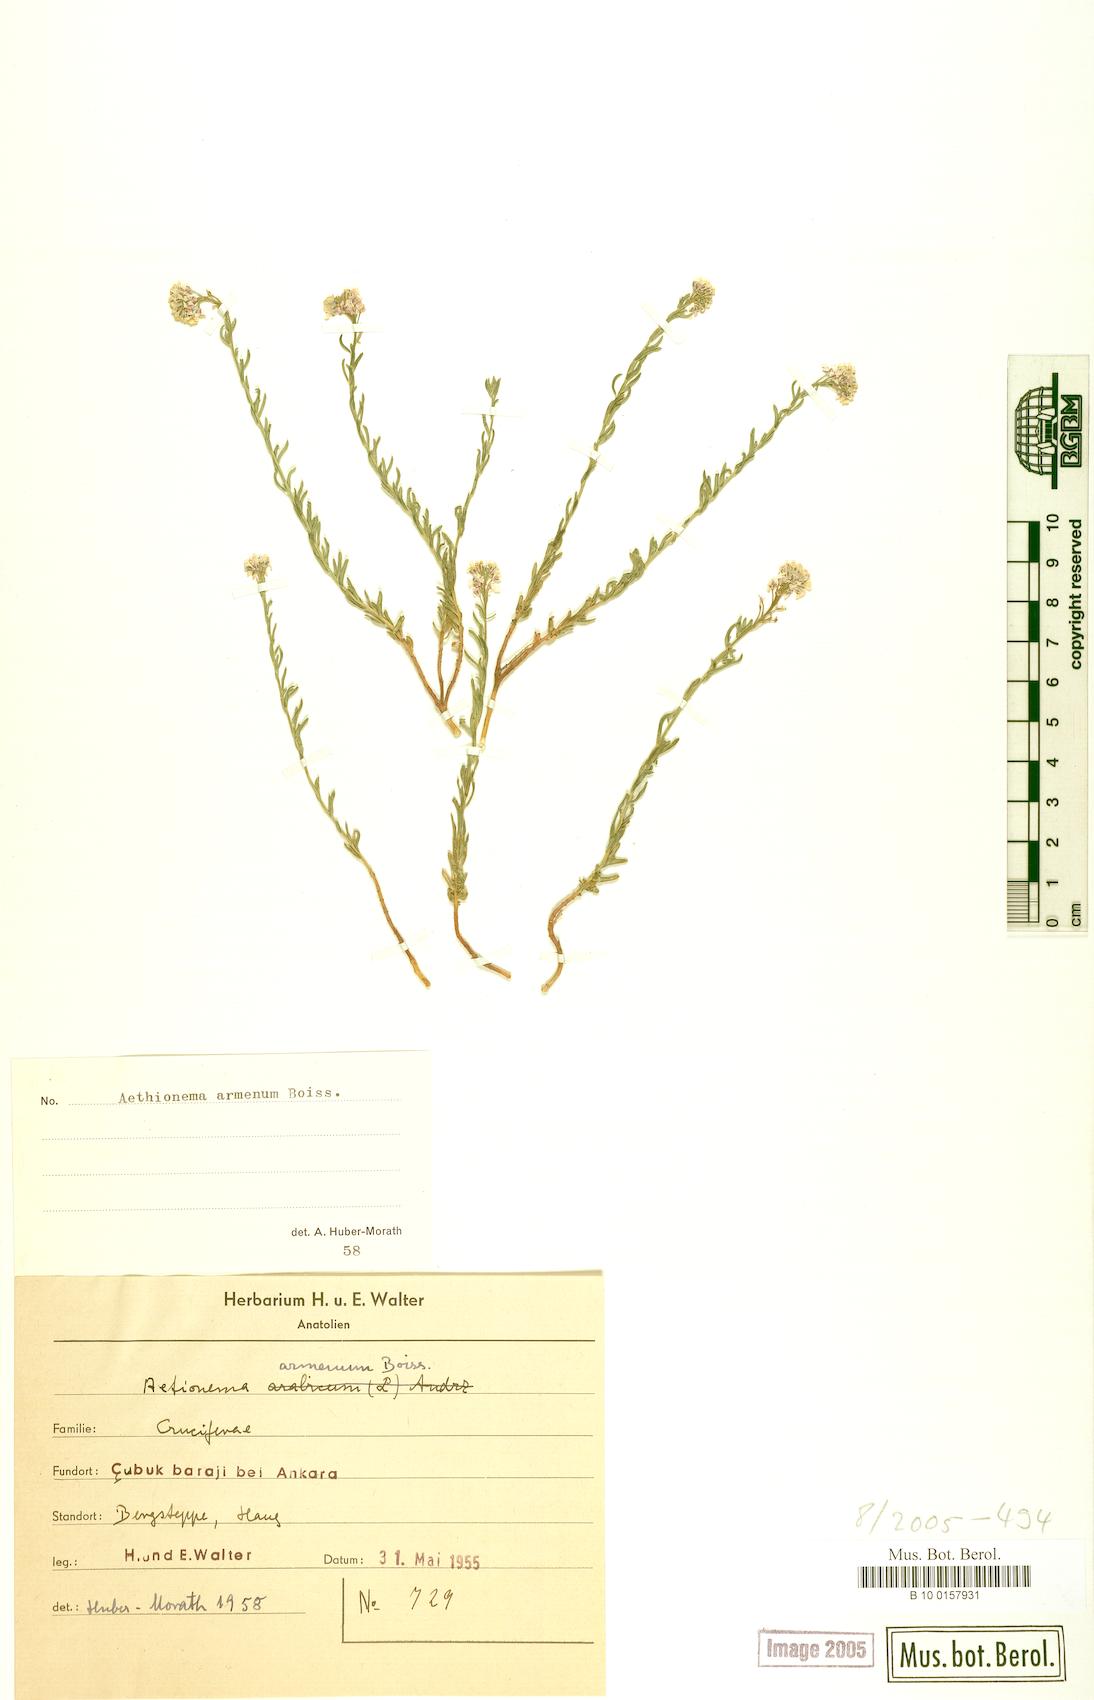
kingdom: Plantae
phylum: Tracheophyta
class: Magnoliopsida
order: Brassicales
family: Brassicaceae
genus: Aethionema
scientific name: Aethionema armenum
